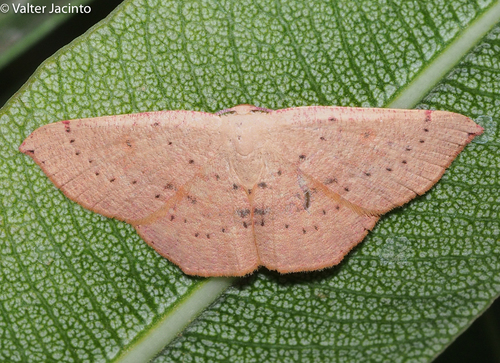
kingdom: Animalia
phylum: Arthropoda
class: Insecta
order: Lepidoptera
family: Geometridae
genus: Cyclophora
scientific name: Cyclophora puppillaria
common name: Blair's mocha
